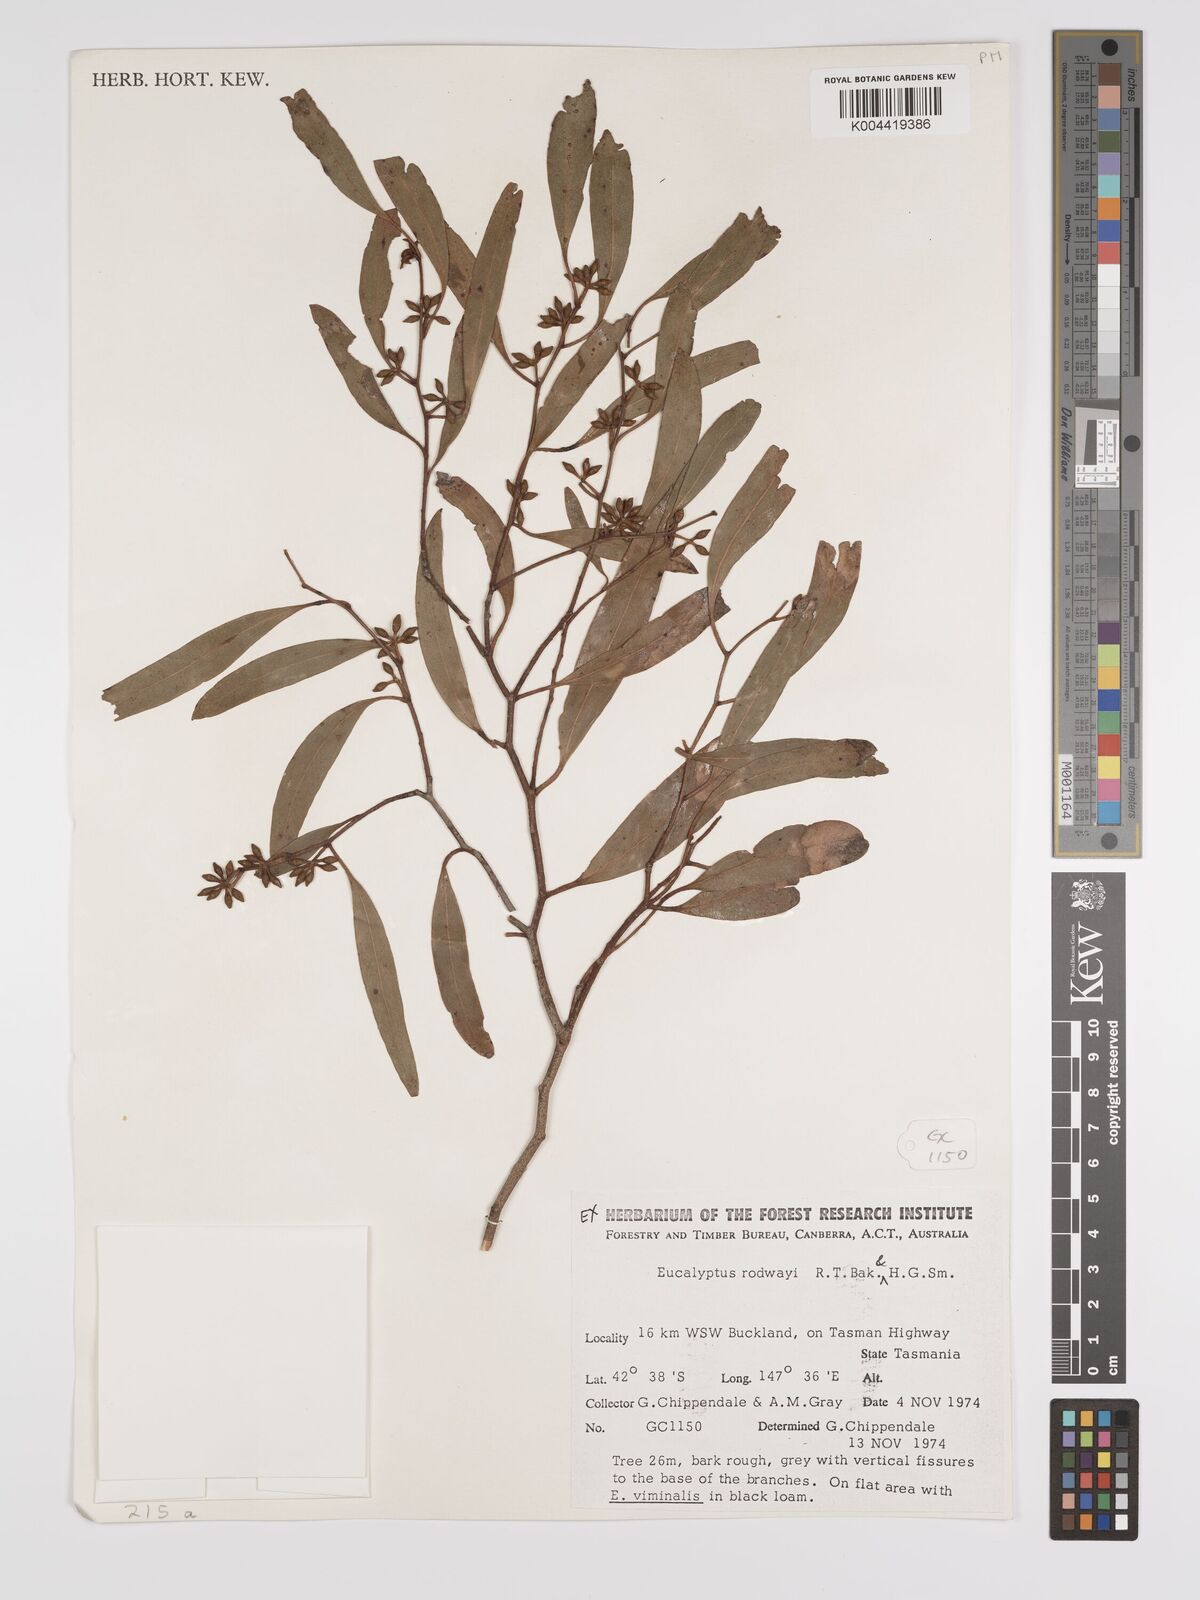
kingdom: Plantae
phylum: Tracheophyta
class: Magnoliopsida
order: Myrtales
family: Myrtaceae
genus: Eucalyptus
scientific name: Eucalyptus rodwayi
